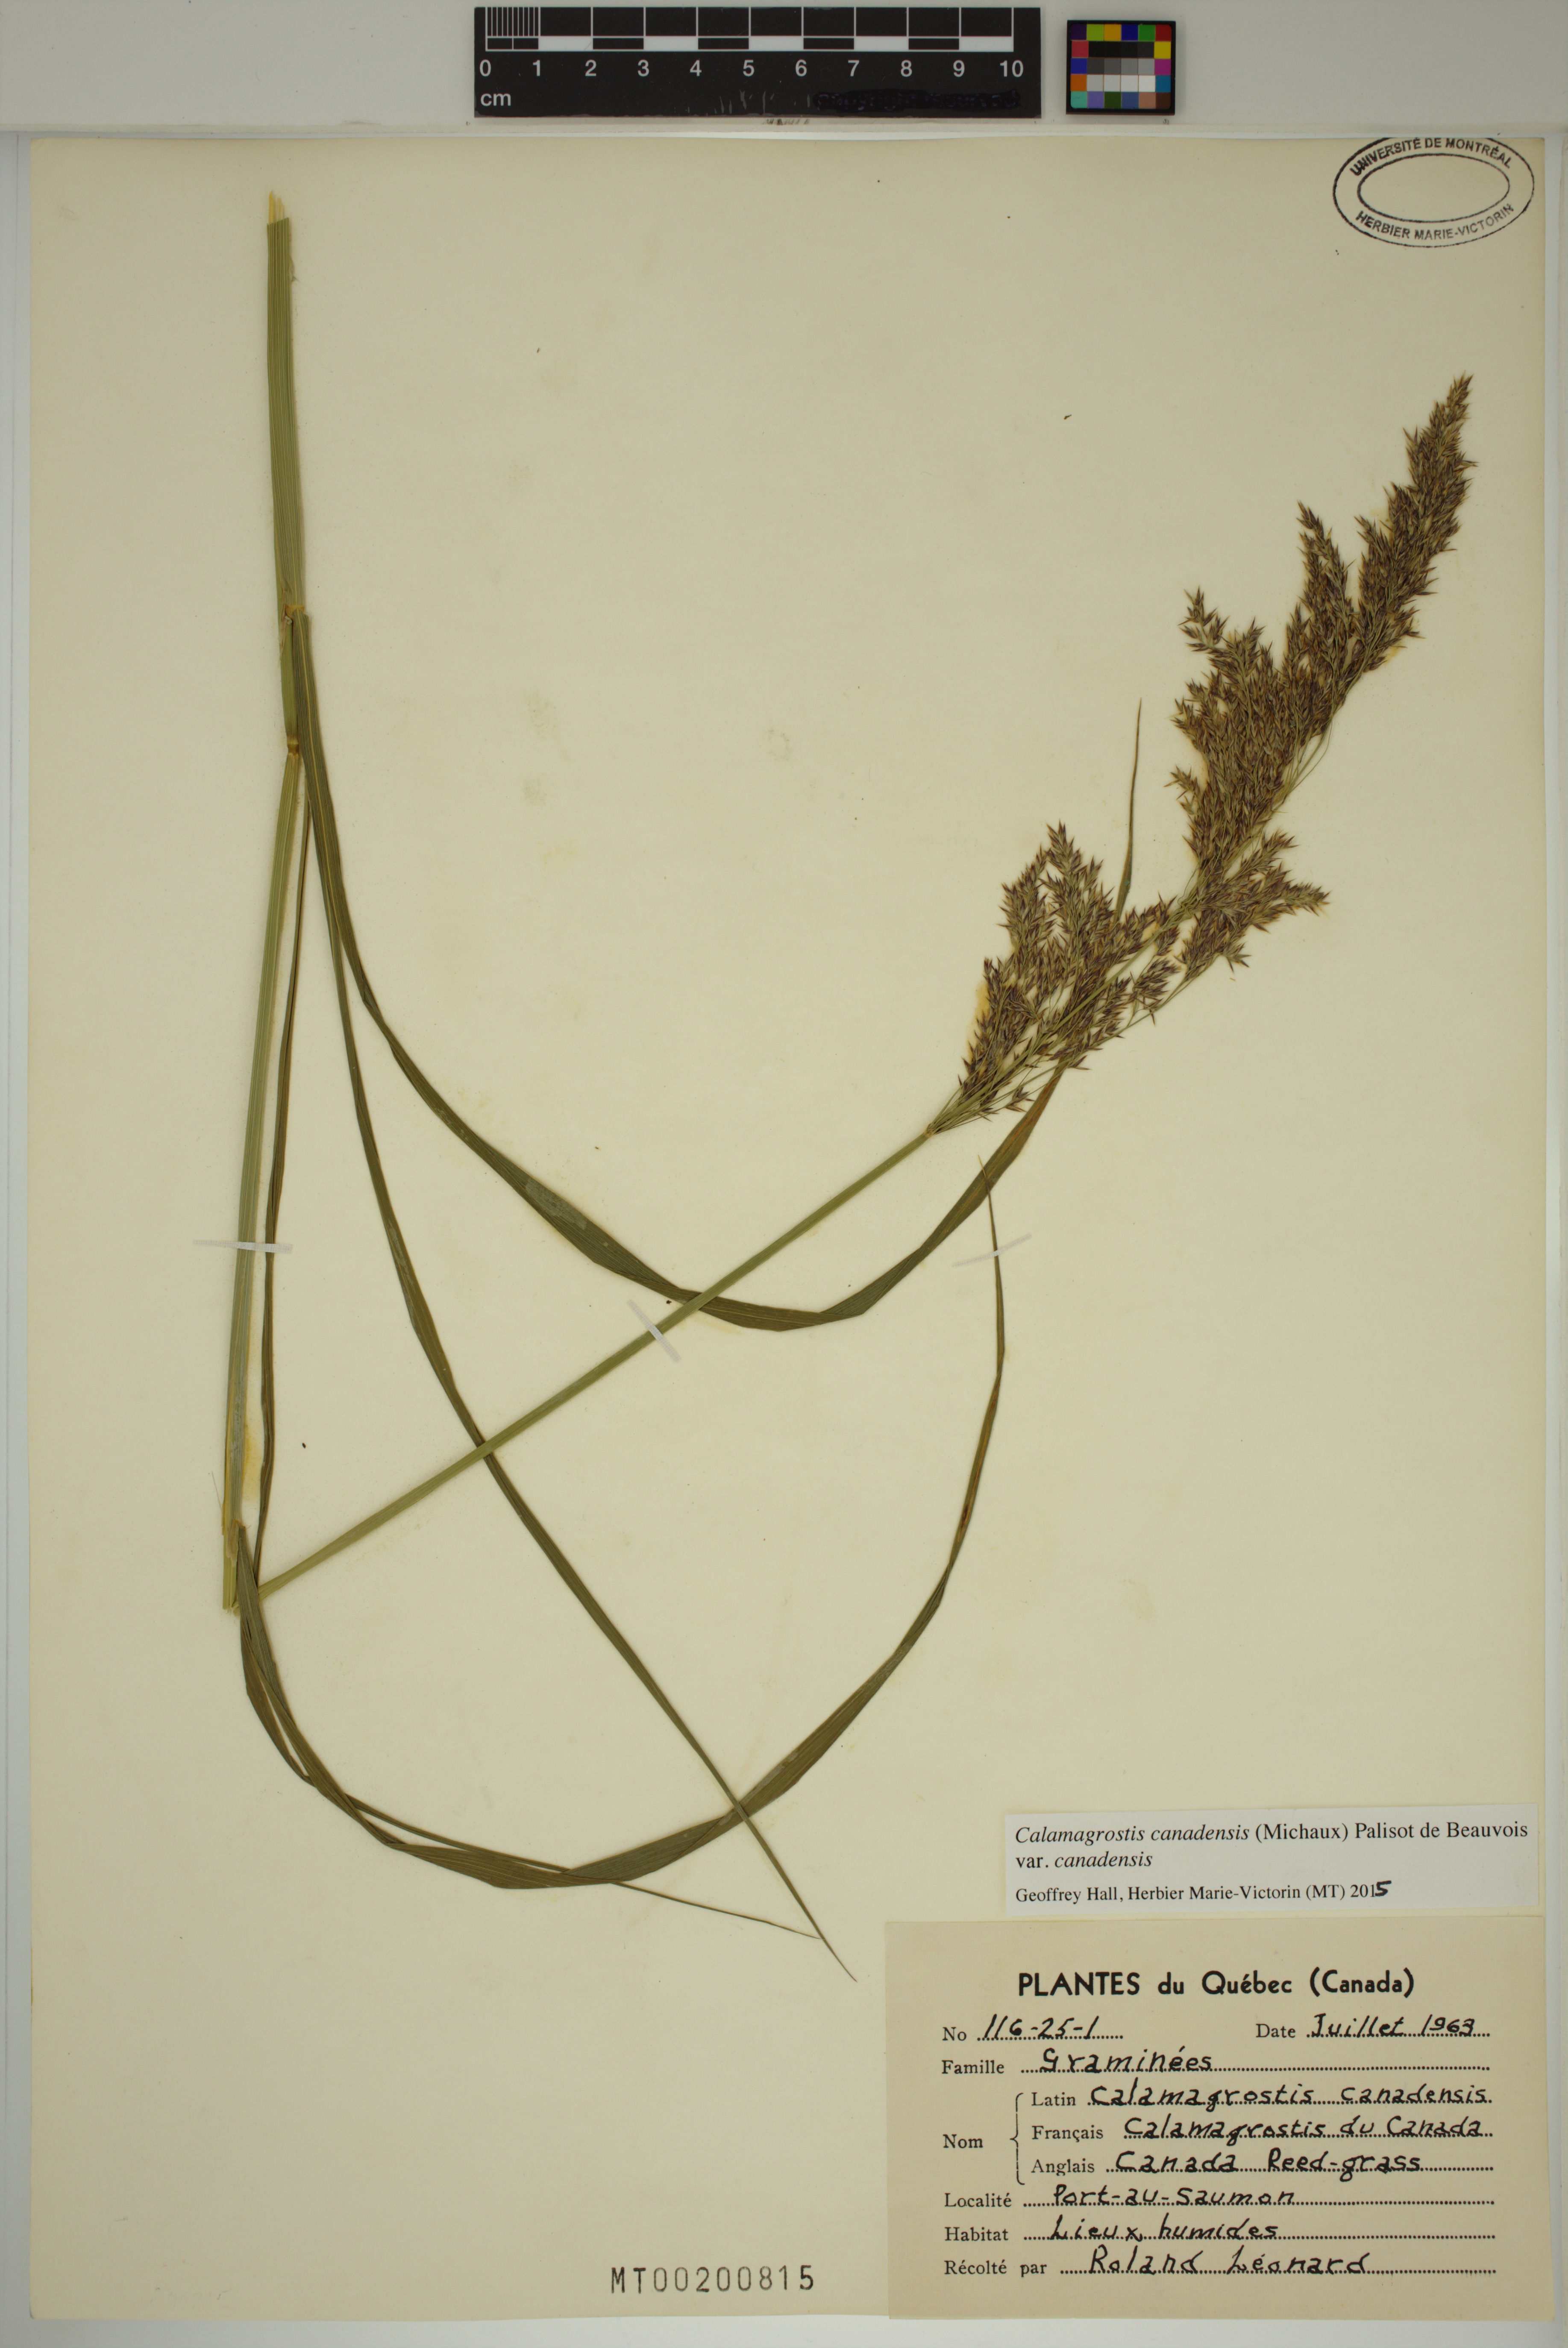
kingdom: Plantae
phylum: Tracheophyta
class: Liliopsida
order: Poales
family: Poaceae
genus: Calamagrostis
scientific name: Calamagrostis canadensis
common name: Canada bluejoint
